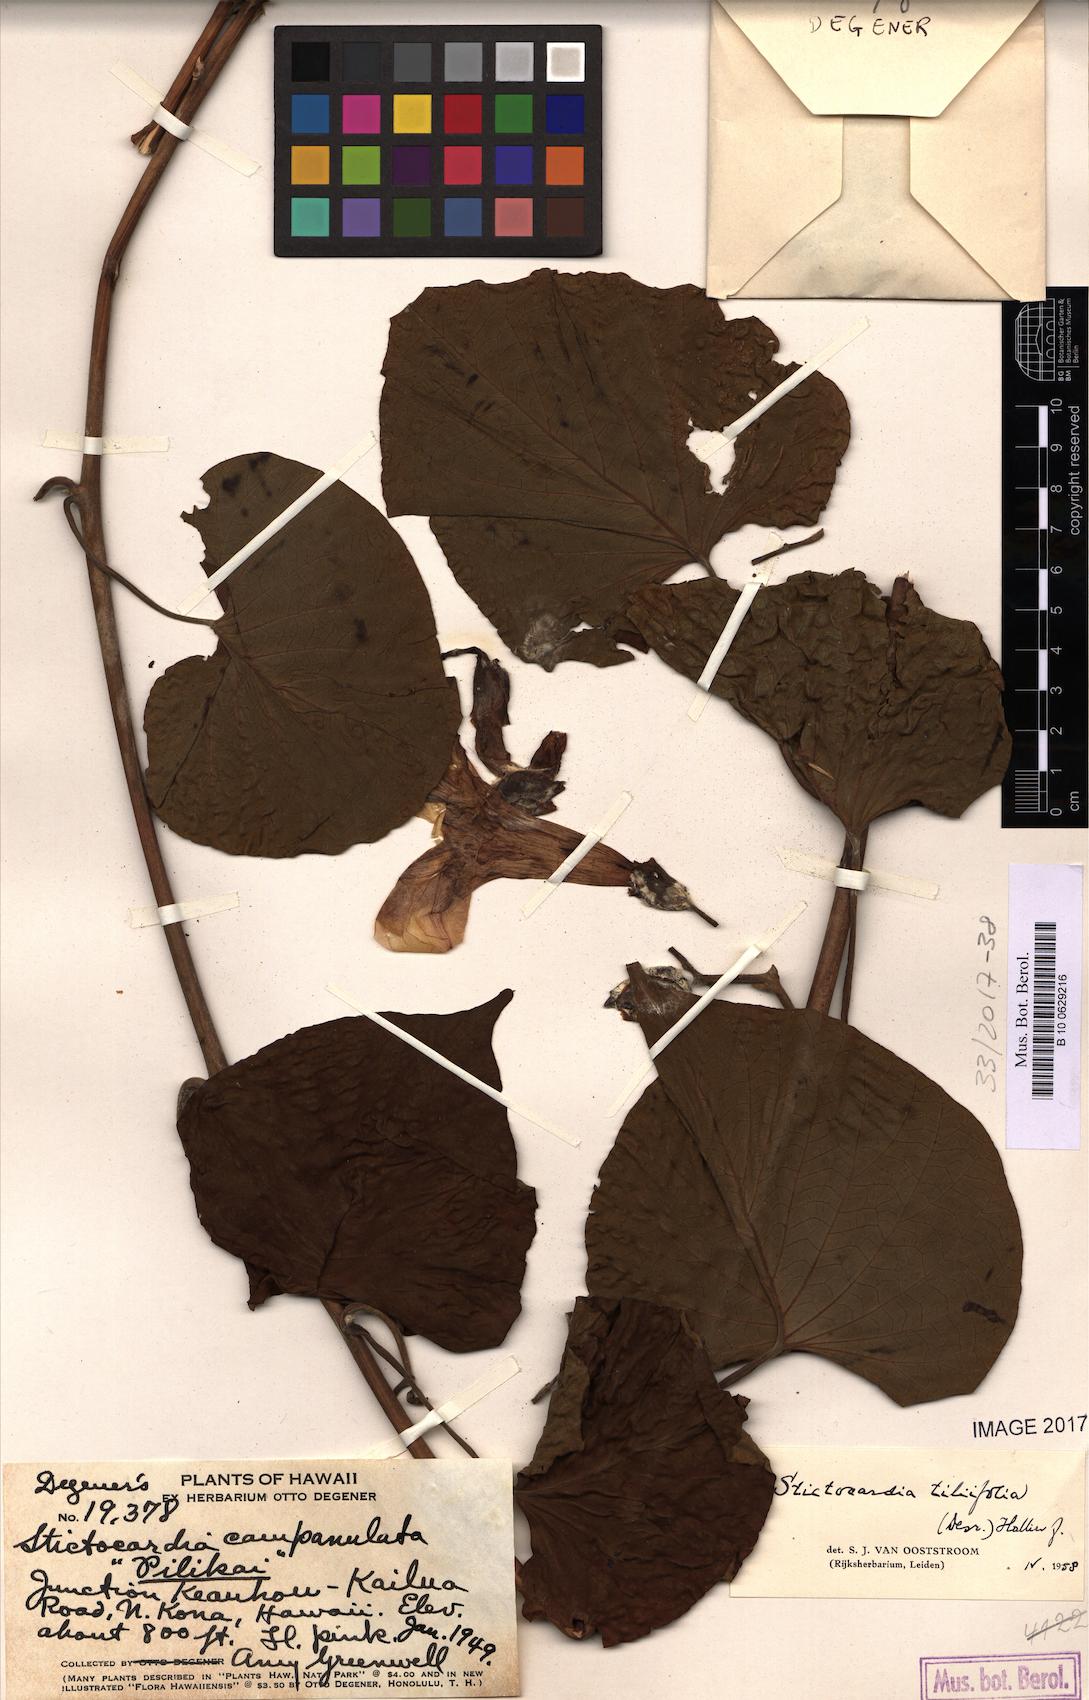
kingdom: Plantae
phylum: Tracheophyta
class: Magnoliopsida
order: Solanales
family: Convolvulaceae
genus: Stictocardia
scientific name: Stictocardia tiliifolia
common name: Spottedheart
